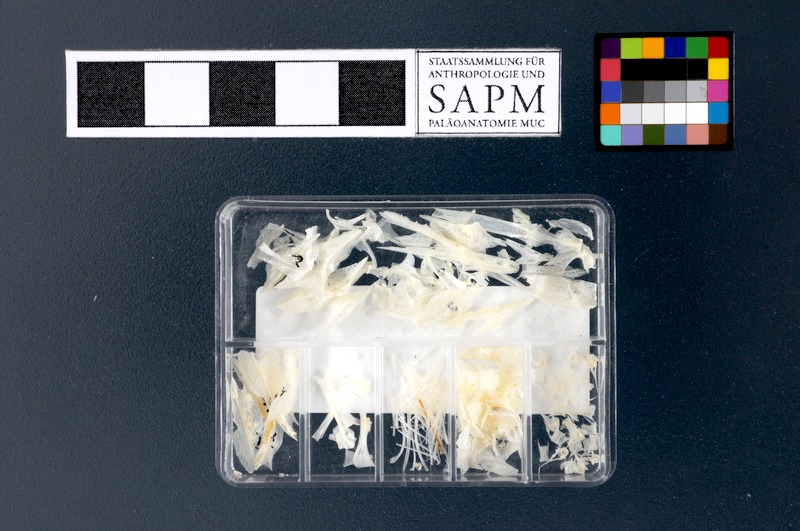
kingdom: Animalia
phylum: Chordata
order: Scorpaeniformes
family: Peristediidae
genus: Peristedion
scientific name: Peristedion cataphractum
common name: Armed gurnard
